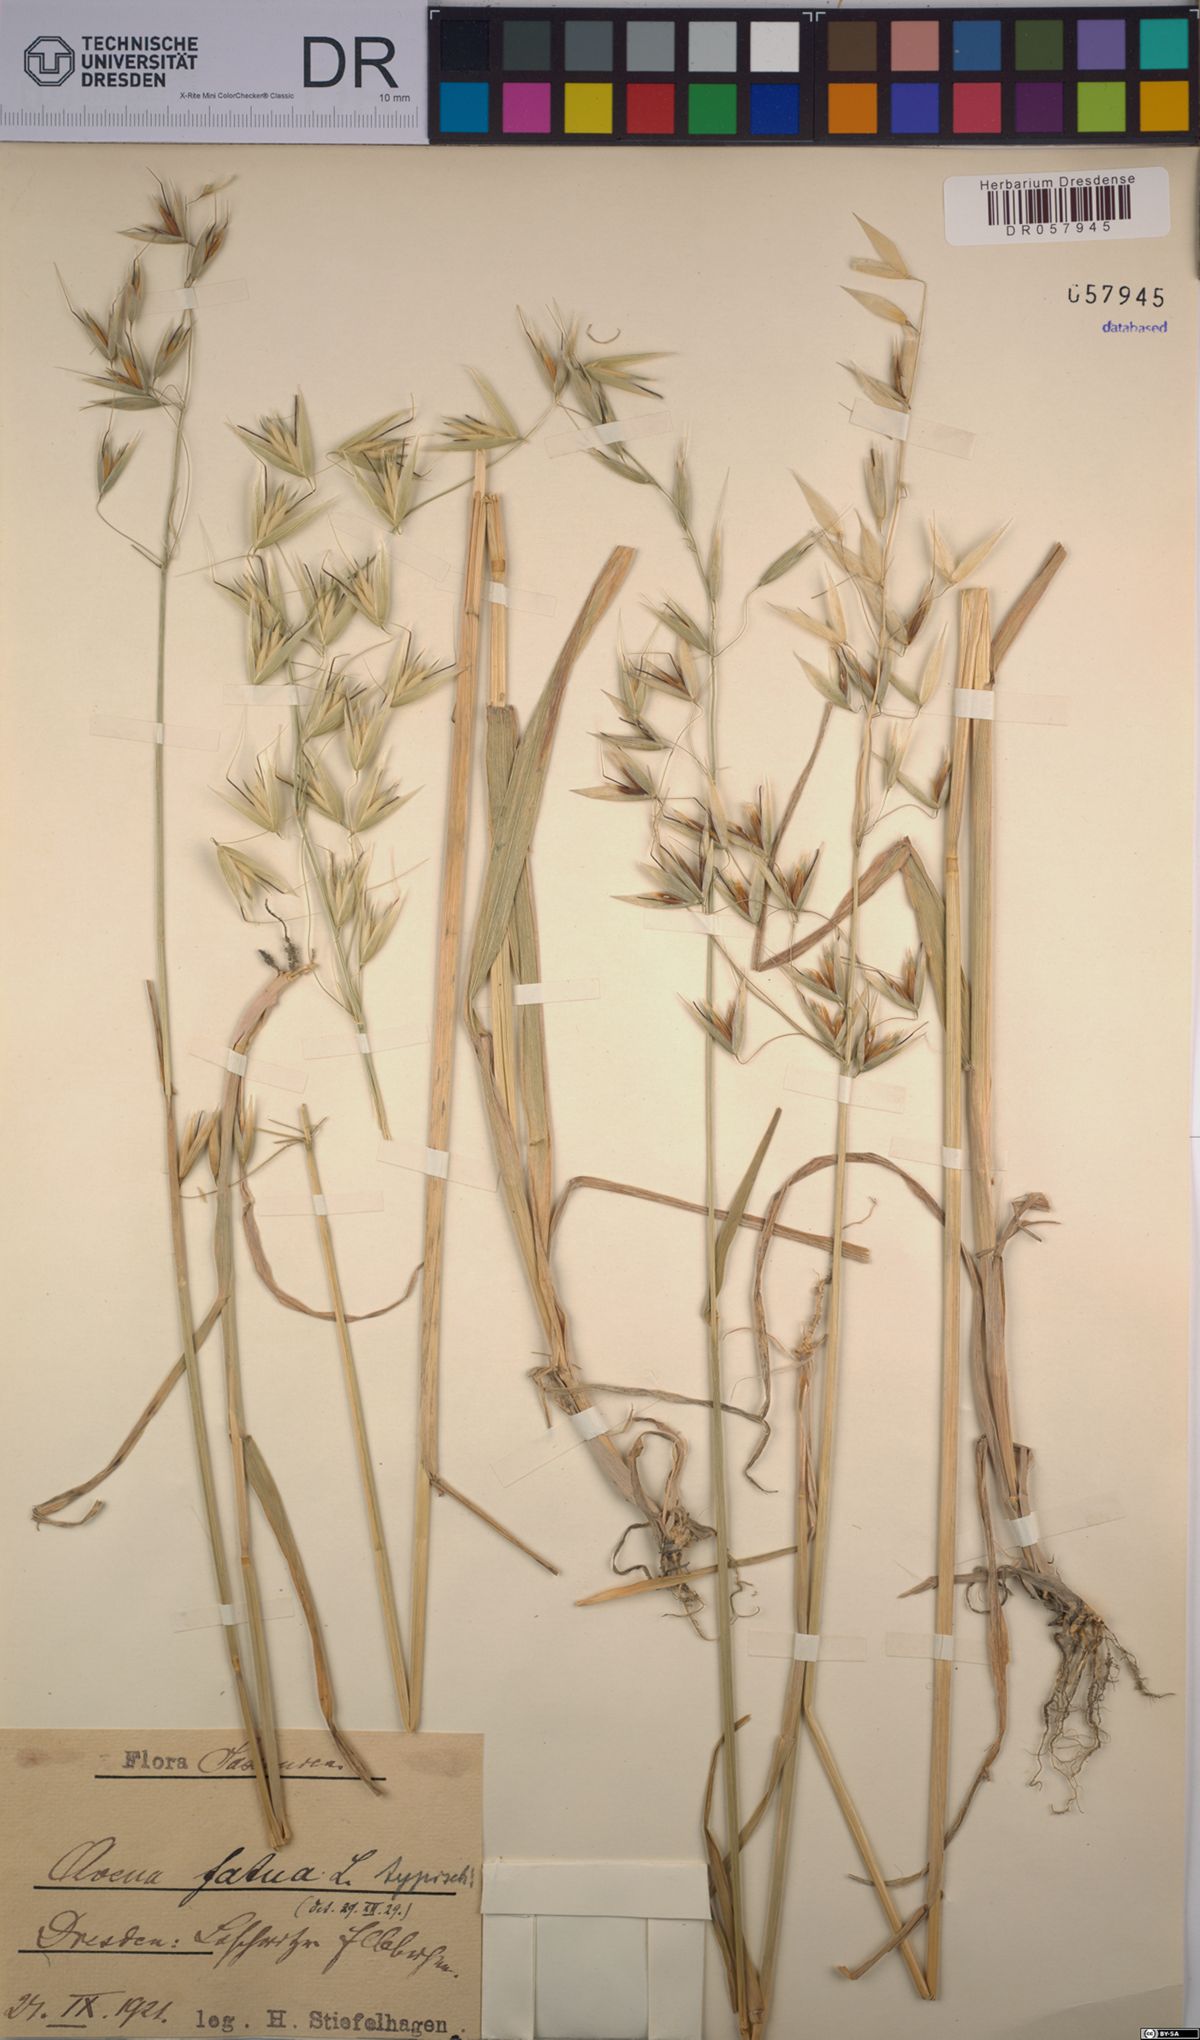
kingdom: Plantae
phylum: Tracheophyta
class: Liliopsida
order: Poales
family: Poaceae
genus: Avena
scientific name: Avena fatua
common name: Wild oat
